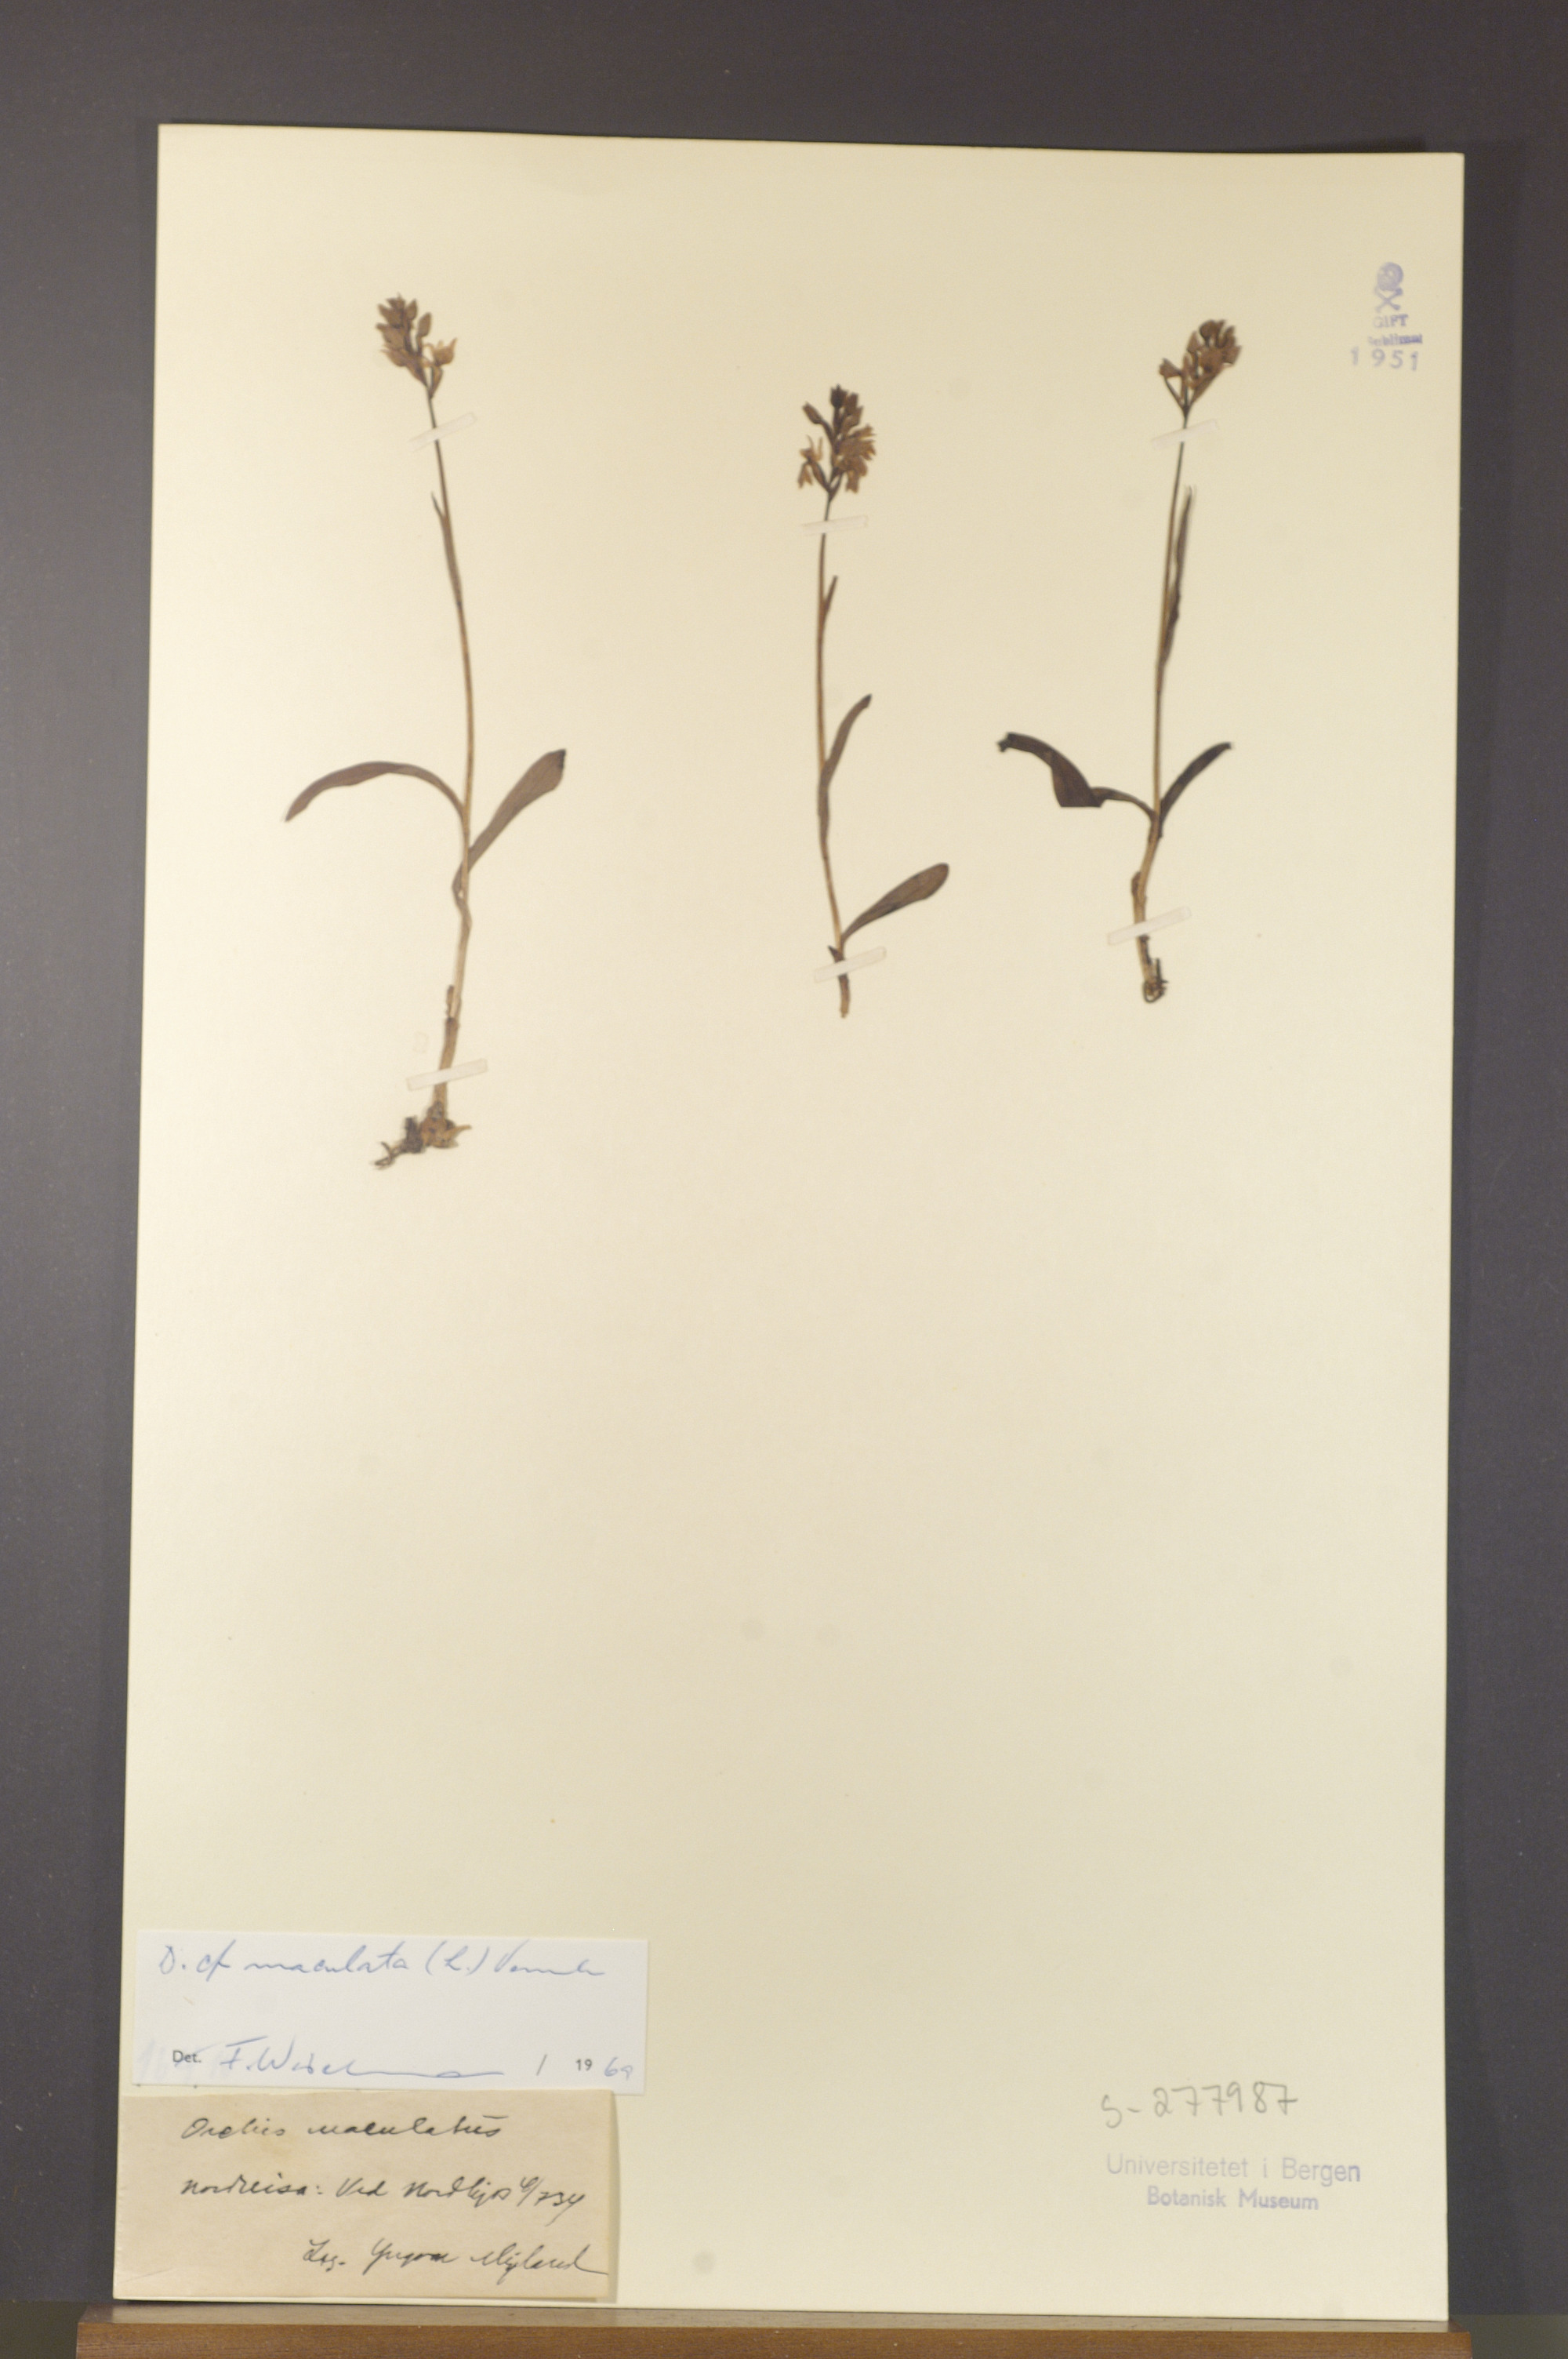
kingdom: Plantae
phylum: Tracheophyta
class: Liliopsida
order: Asparagales
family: Orchidaceae
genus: Dactylorhiza
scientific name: Dactylorhiza maculata
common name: Heath spotted-orchid
